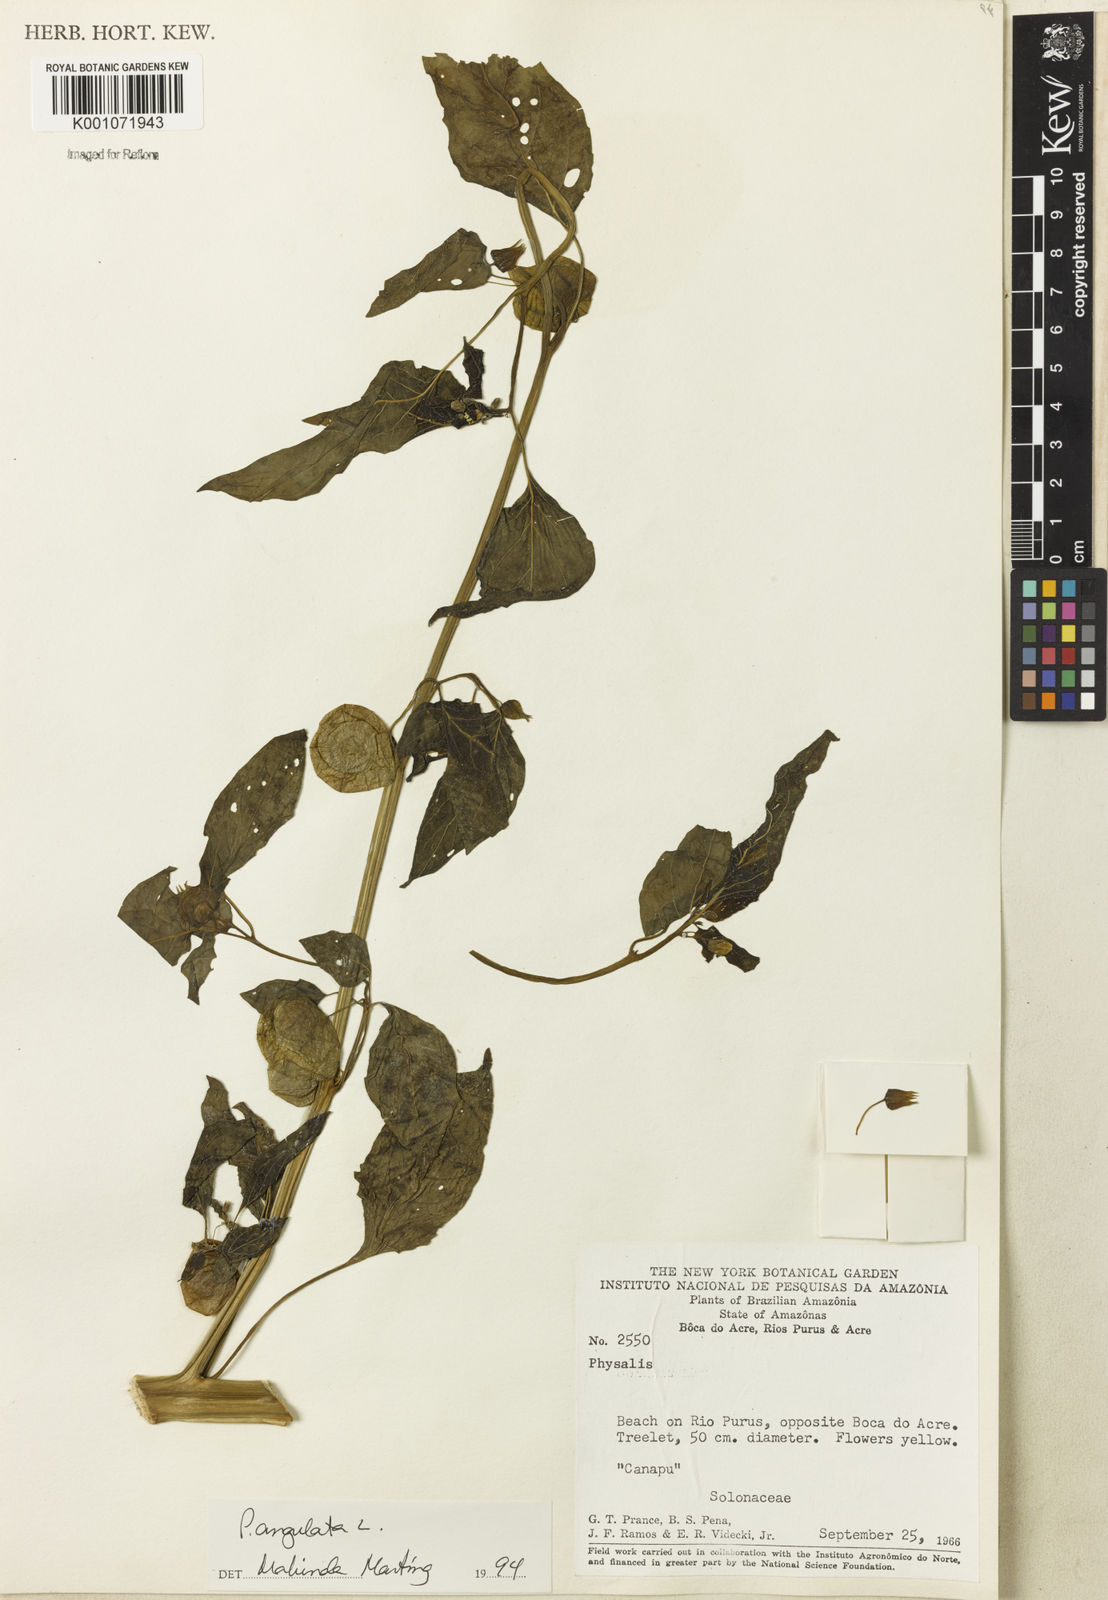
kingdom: Plantae
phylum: Tracheophyta
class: Magnoliopsida
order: Solanales
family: Solanaceae
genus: Physalis
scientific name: Physalis angulata
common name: Angular winter-cherry
